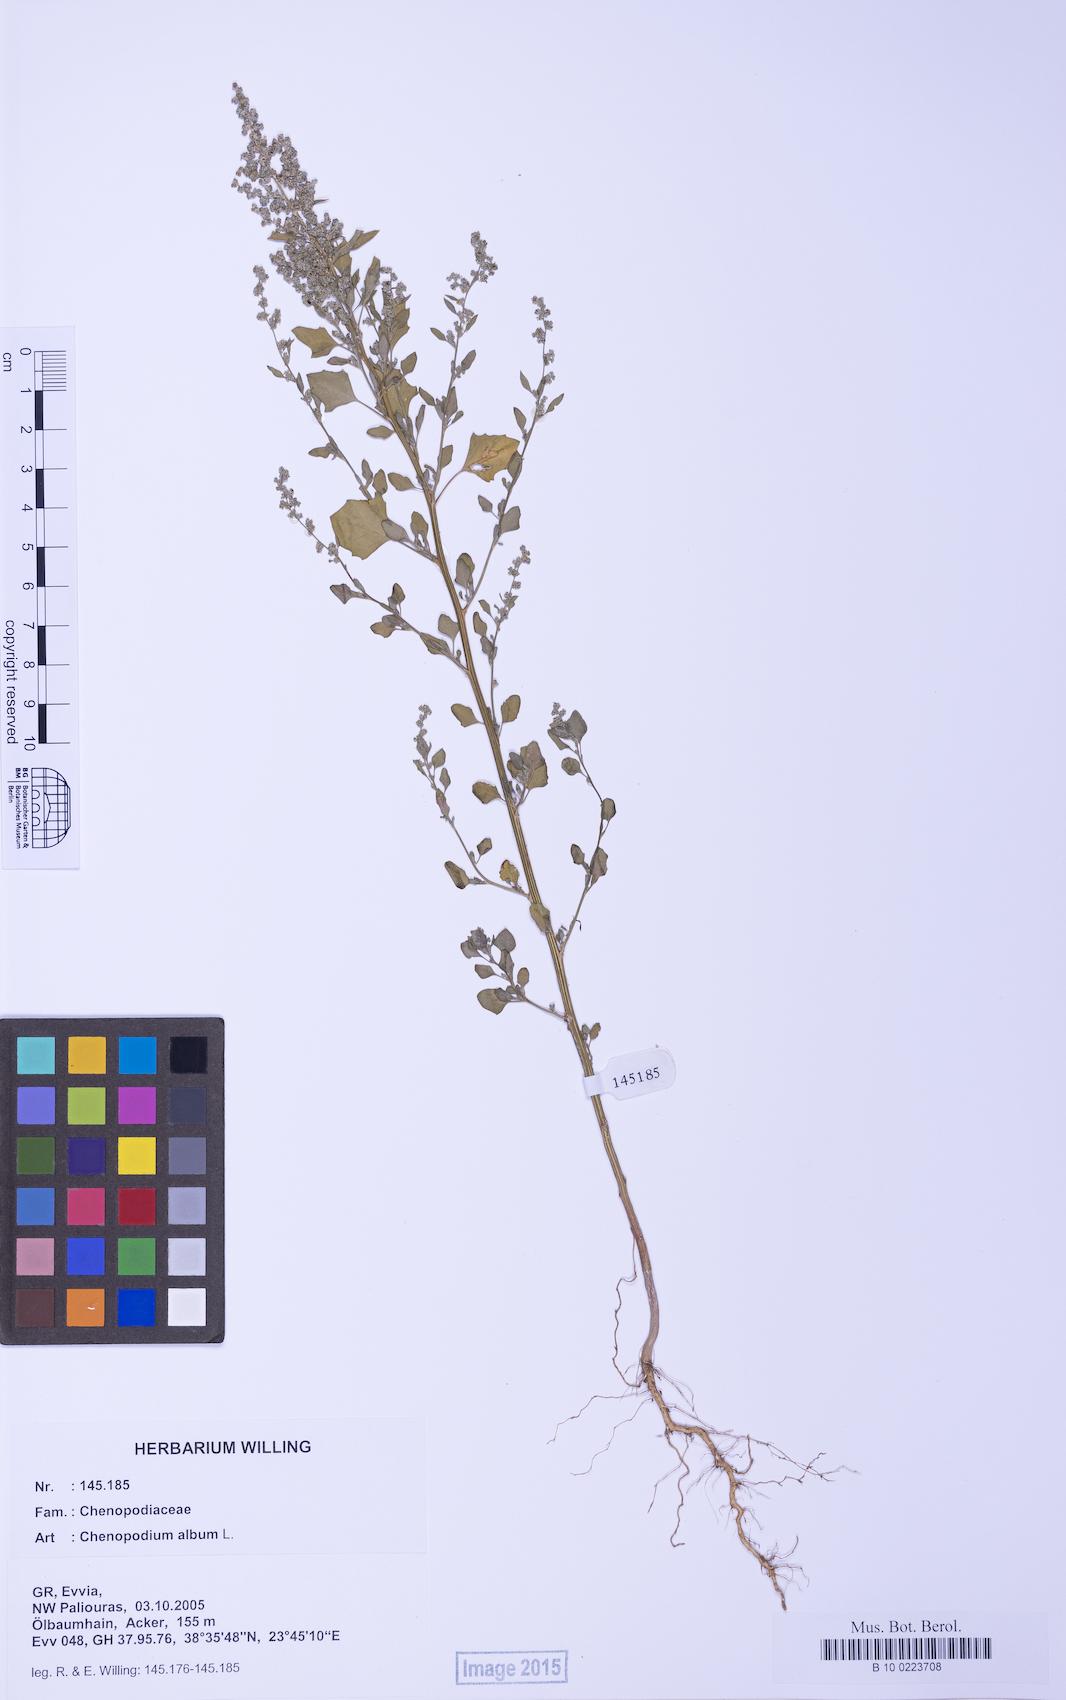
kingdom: Plantae
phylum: Tracheophyta
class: Magnoliopsida
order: Caryophyllales
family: Amaranthaceae
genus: Chenopodium
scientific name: Chenopodium album
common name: Fat-hen
